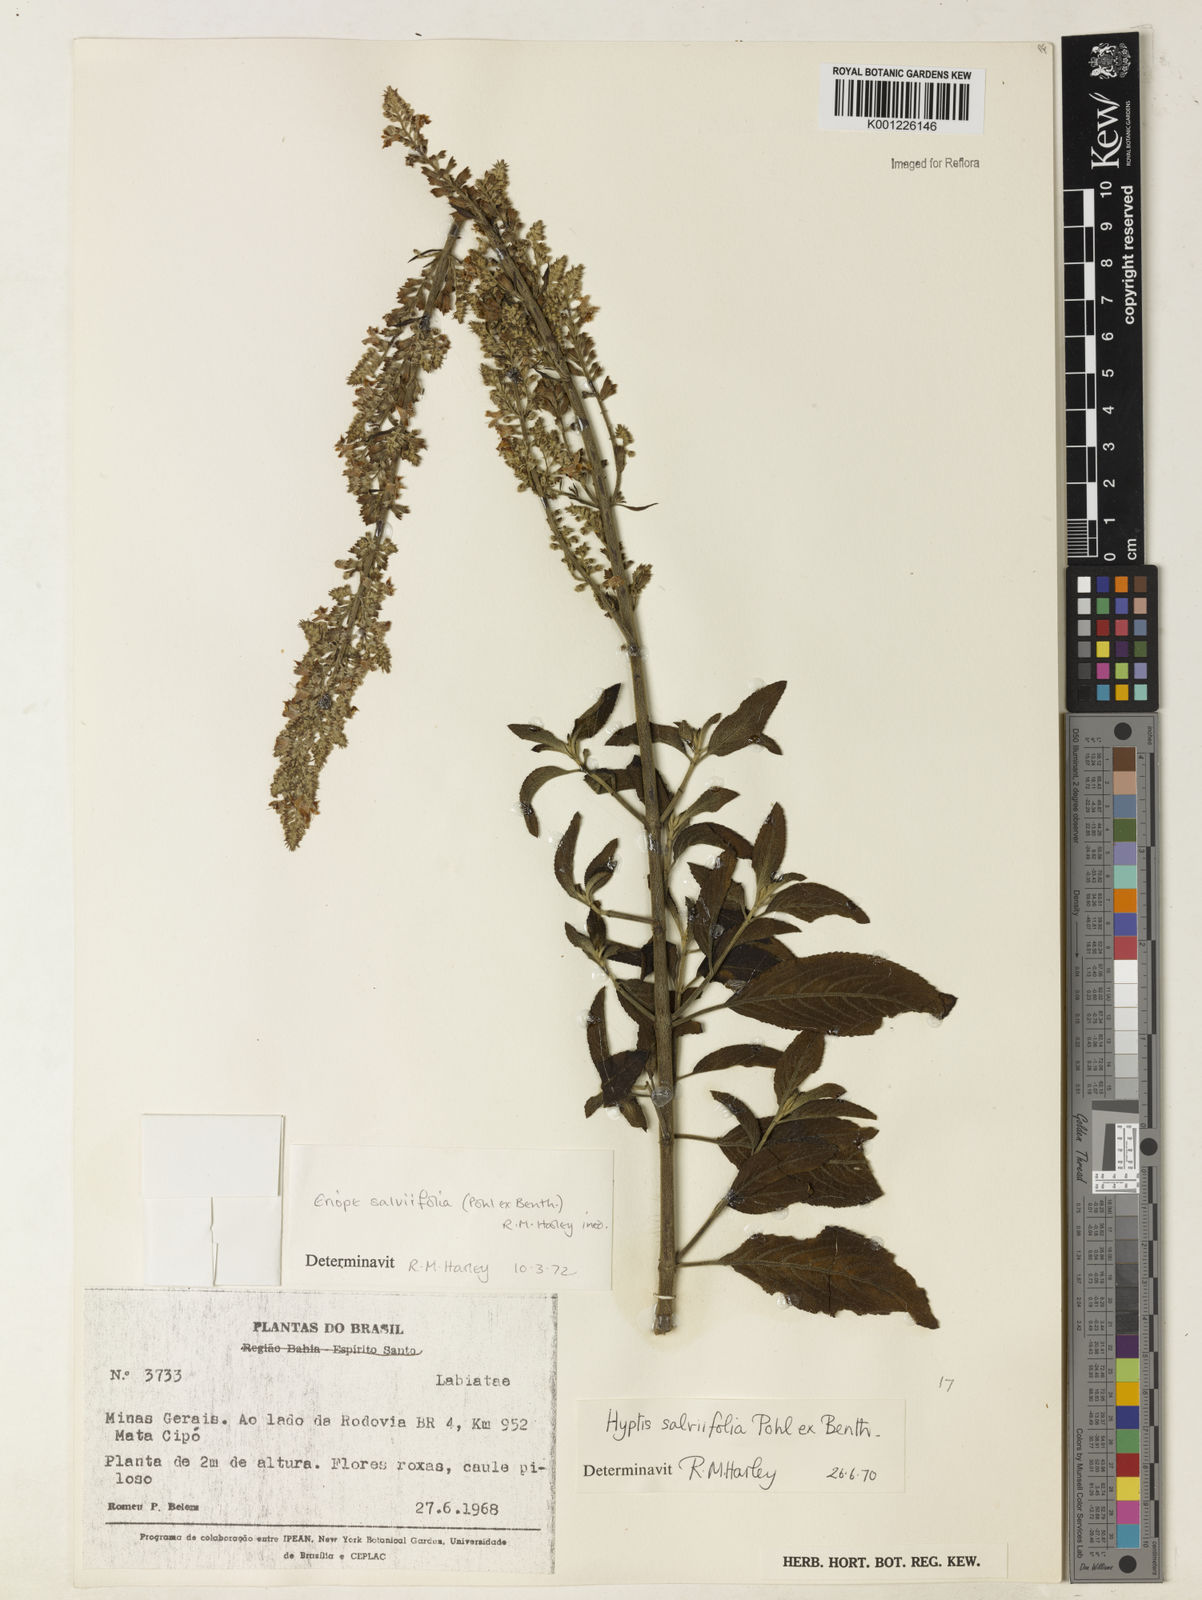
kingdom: Plantae
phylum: Tracheophyta
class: Magnoliopsida
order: Lamiales
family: Lamiaceae
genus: Eriope
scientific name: Eriope salviifolia
